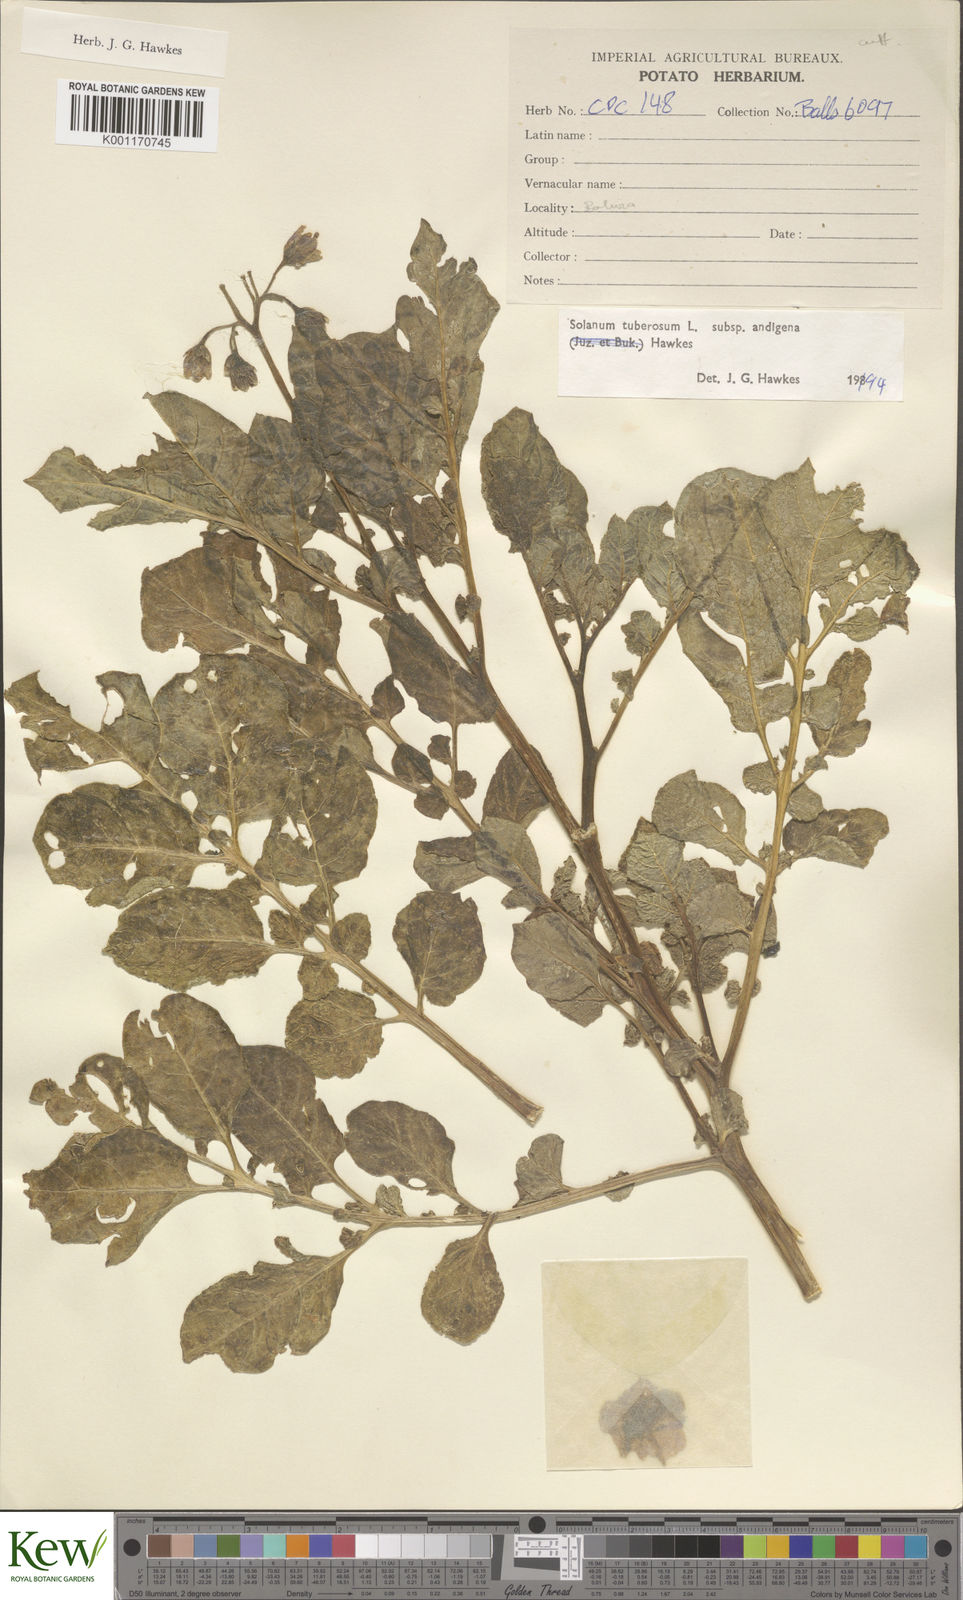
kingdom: Plantae
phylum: Tracheophyta
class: Magnoliopsida
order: Solanales
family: Solanaceae
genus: Solanum
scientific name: Solanum tuberosum
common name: Potato
